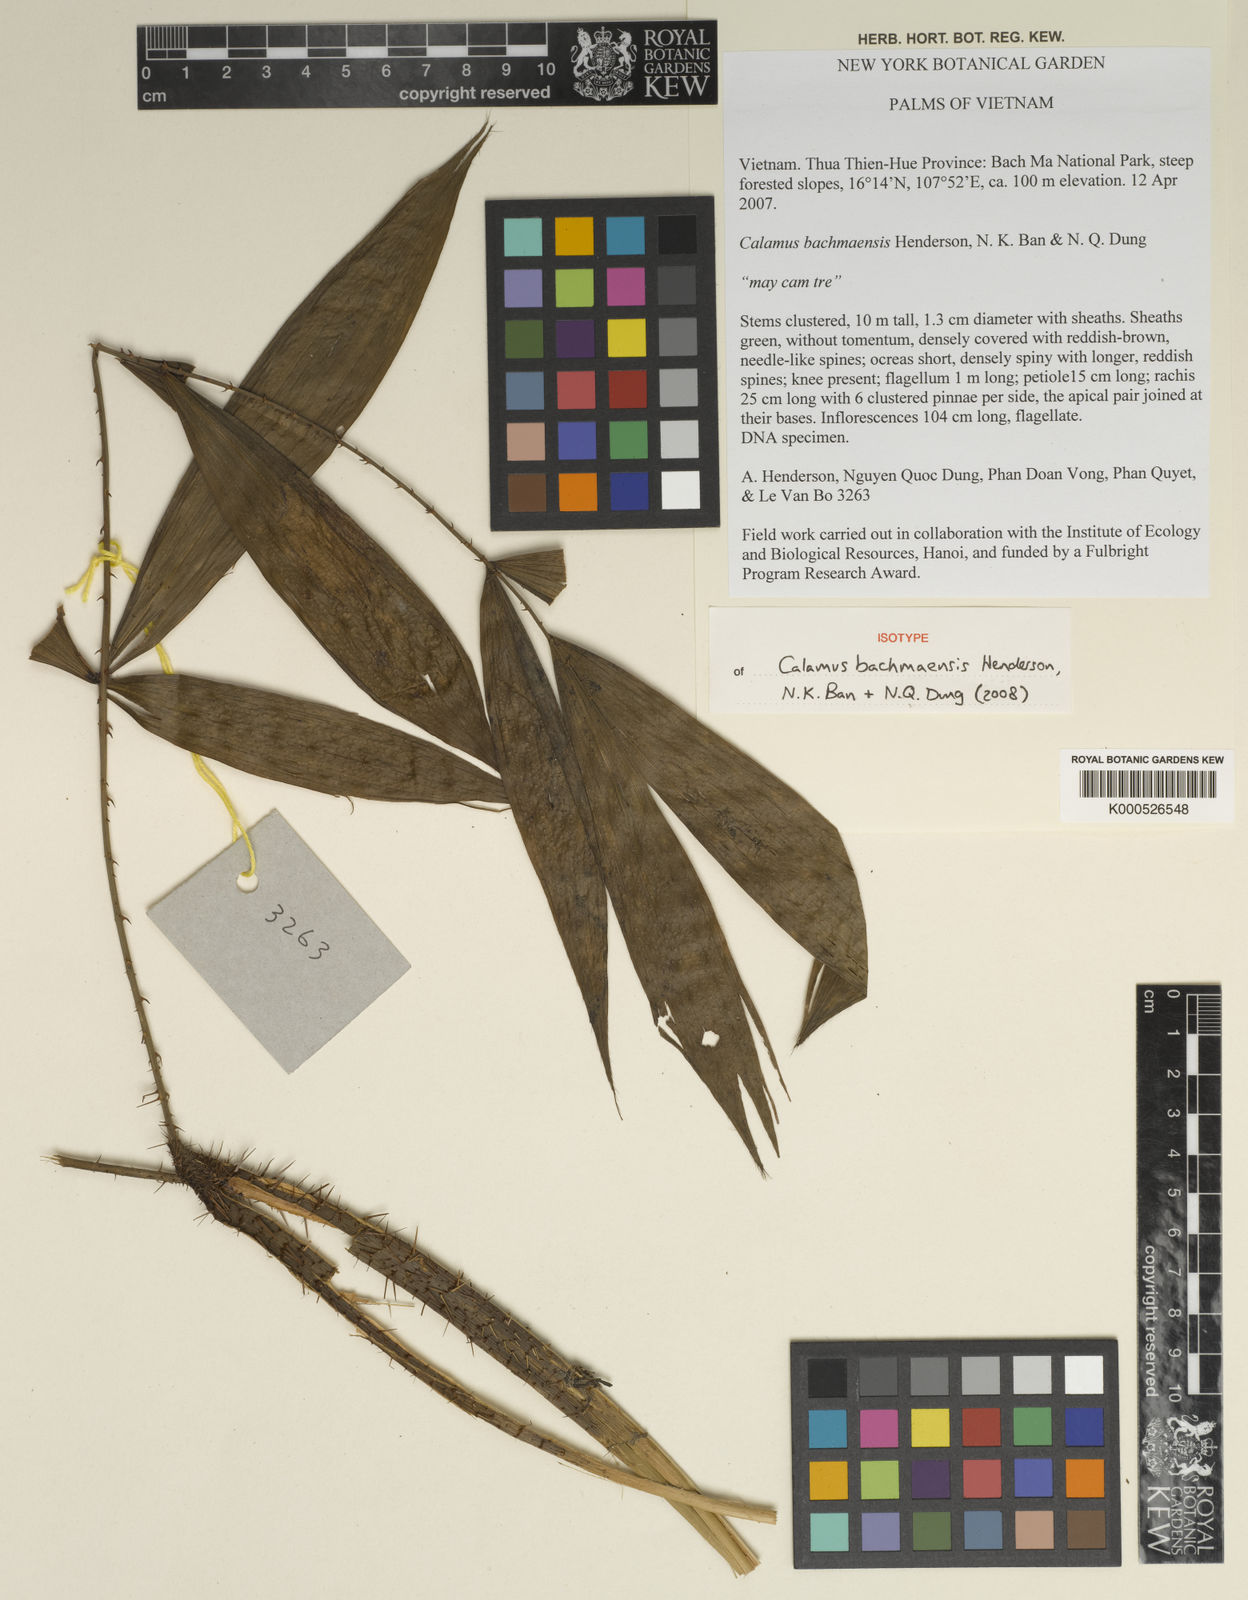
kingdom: Plantae
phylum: Tracheophyta
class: Liliopsida
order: Arecales
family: Arecaceae
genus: Calamus
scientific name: Calamus
